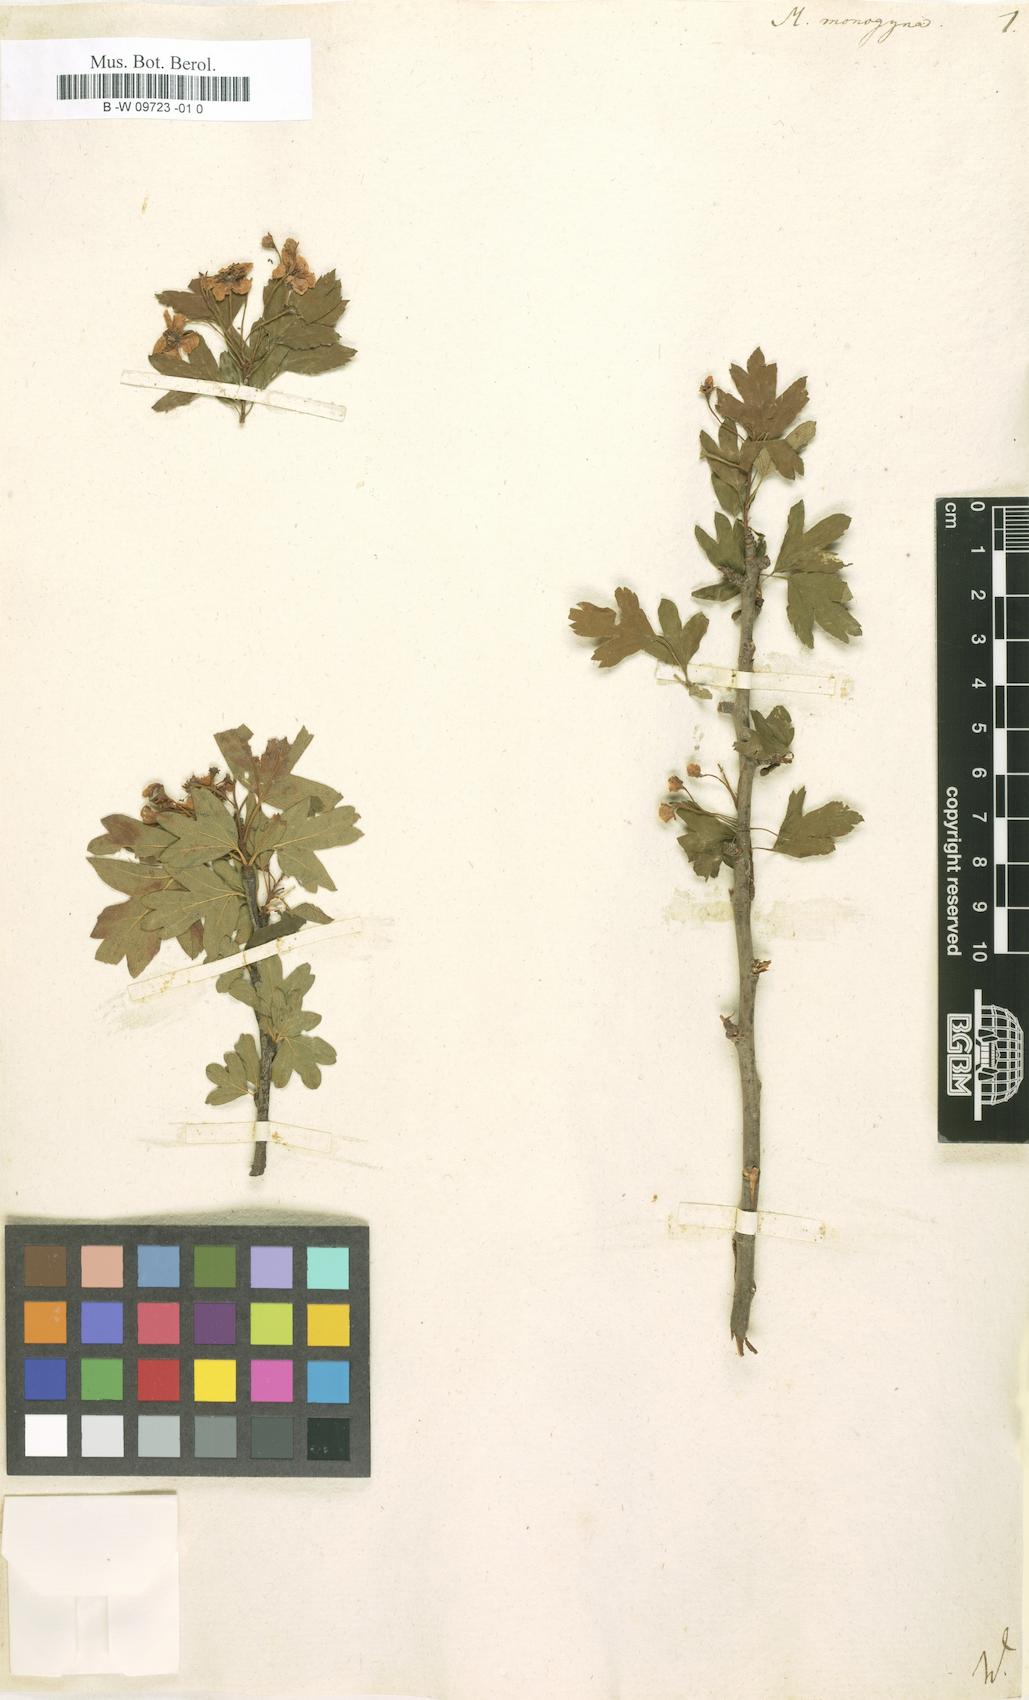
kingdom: Plantae
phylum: Tracheophyta
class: Magnoliopsida
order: Rosales
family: Rosaceae
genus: Crataegus
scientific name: Crataegus monogyna
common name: Hawthorn
